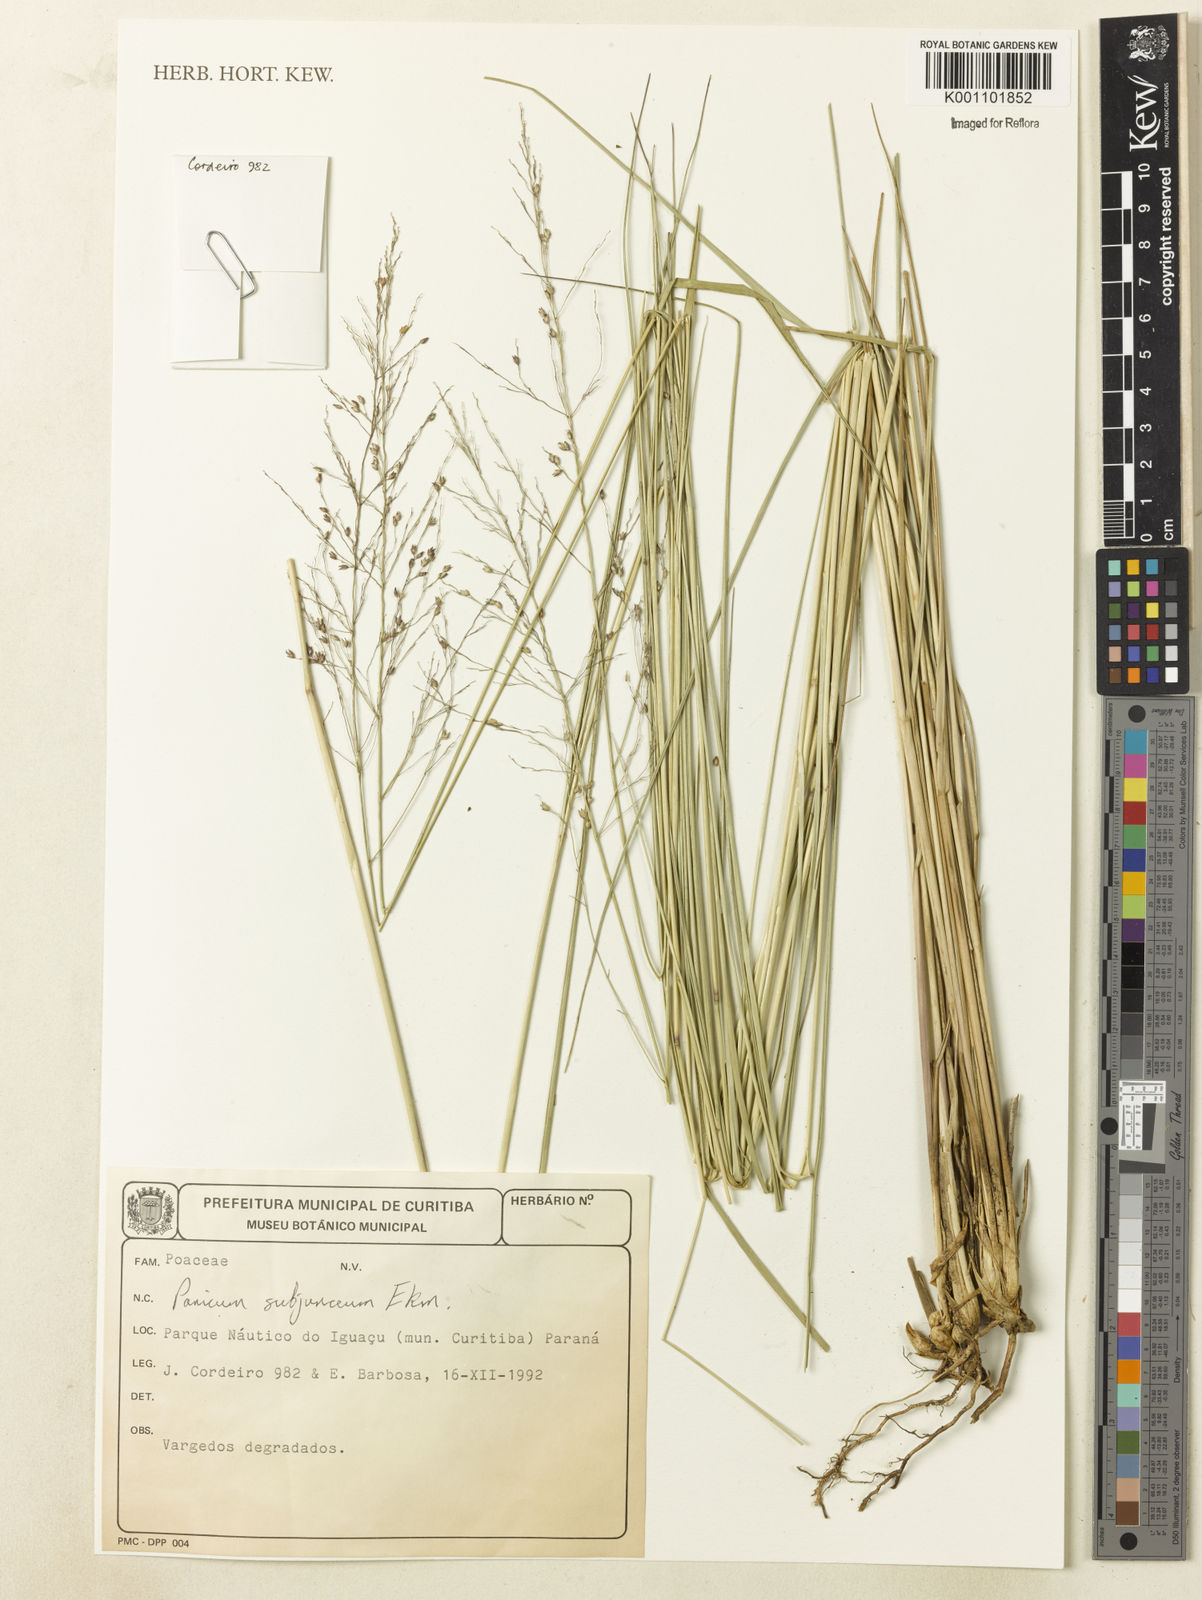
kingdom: Plantae
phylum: Tracheophyta
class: Liliopsida
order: Poales
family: Poaceae
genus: Panicum
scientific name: Panicum glabripes
